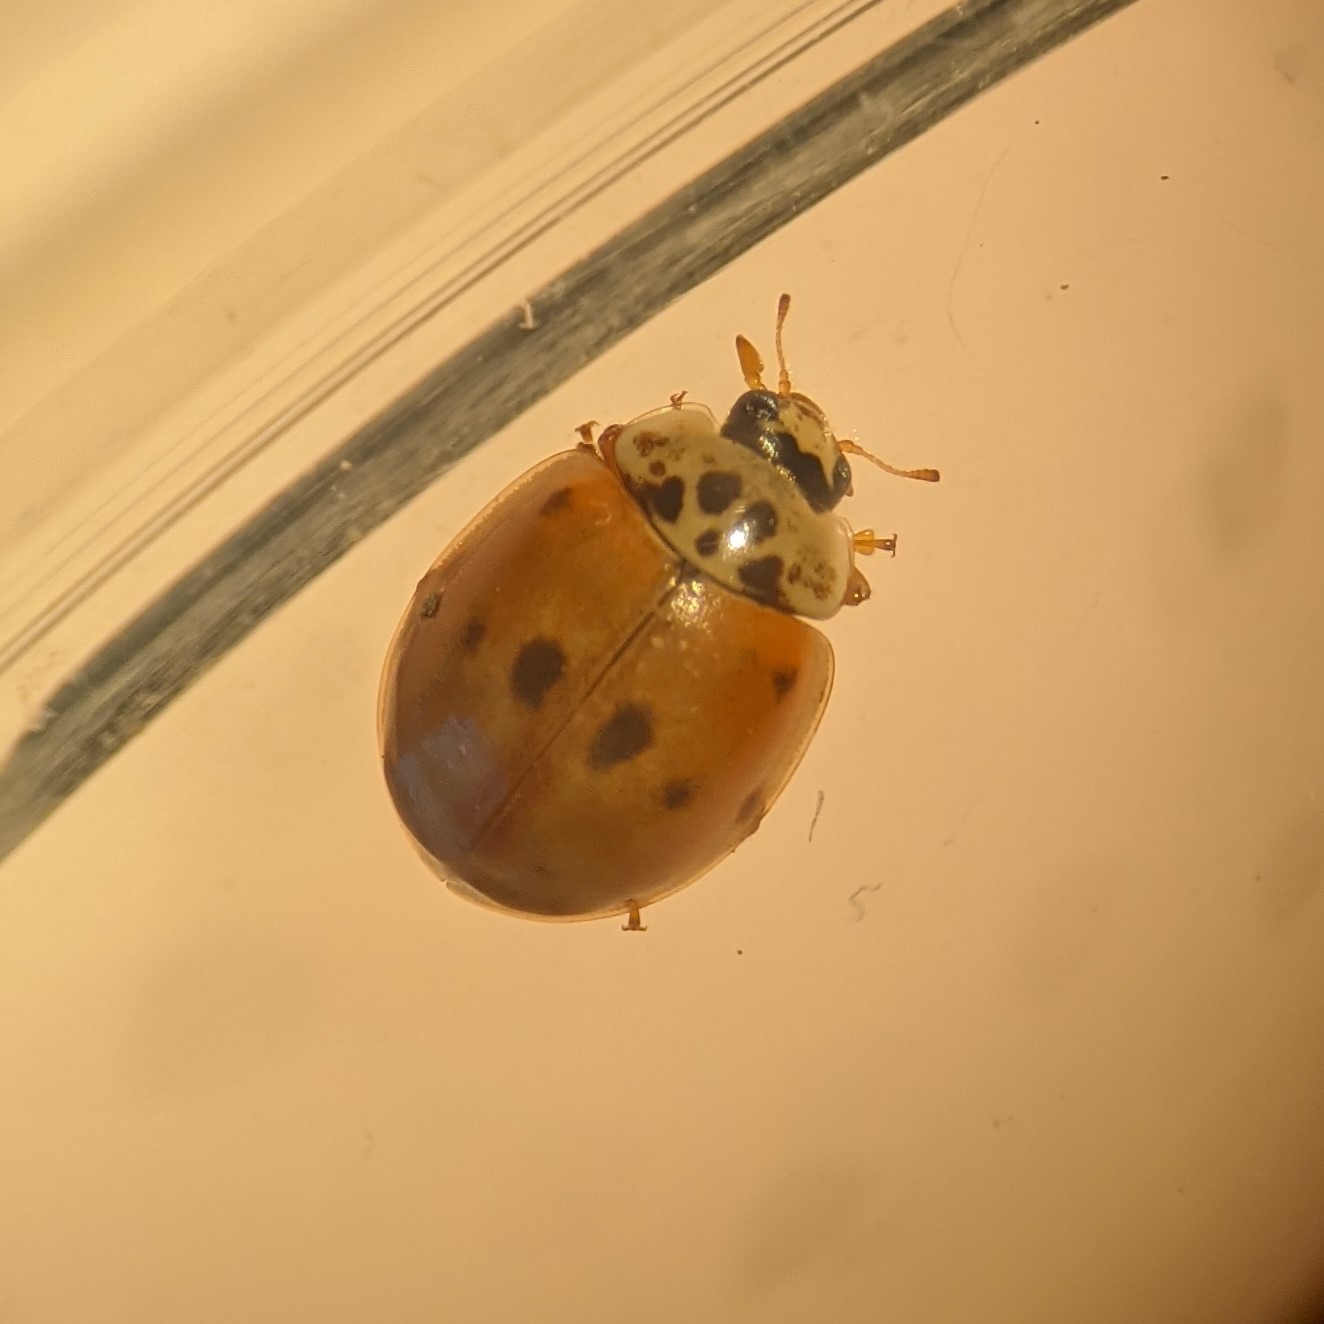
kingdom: Animalia
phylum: Arthropoda
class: Insecta
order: Coleoptera
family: Coccinellidae
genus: Adalia
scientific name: Adalia decempunctata
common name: Tiplettet mariehøne
